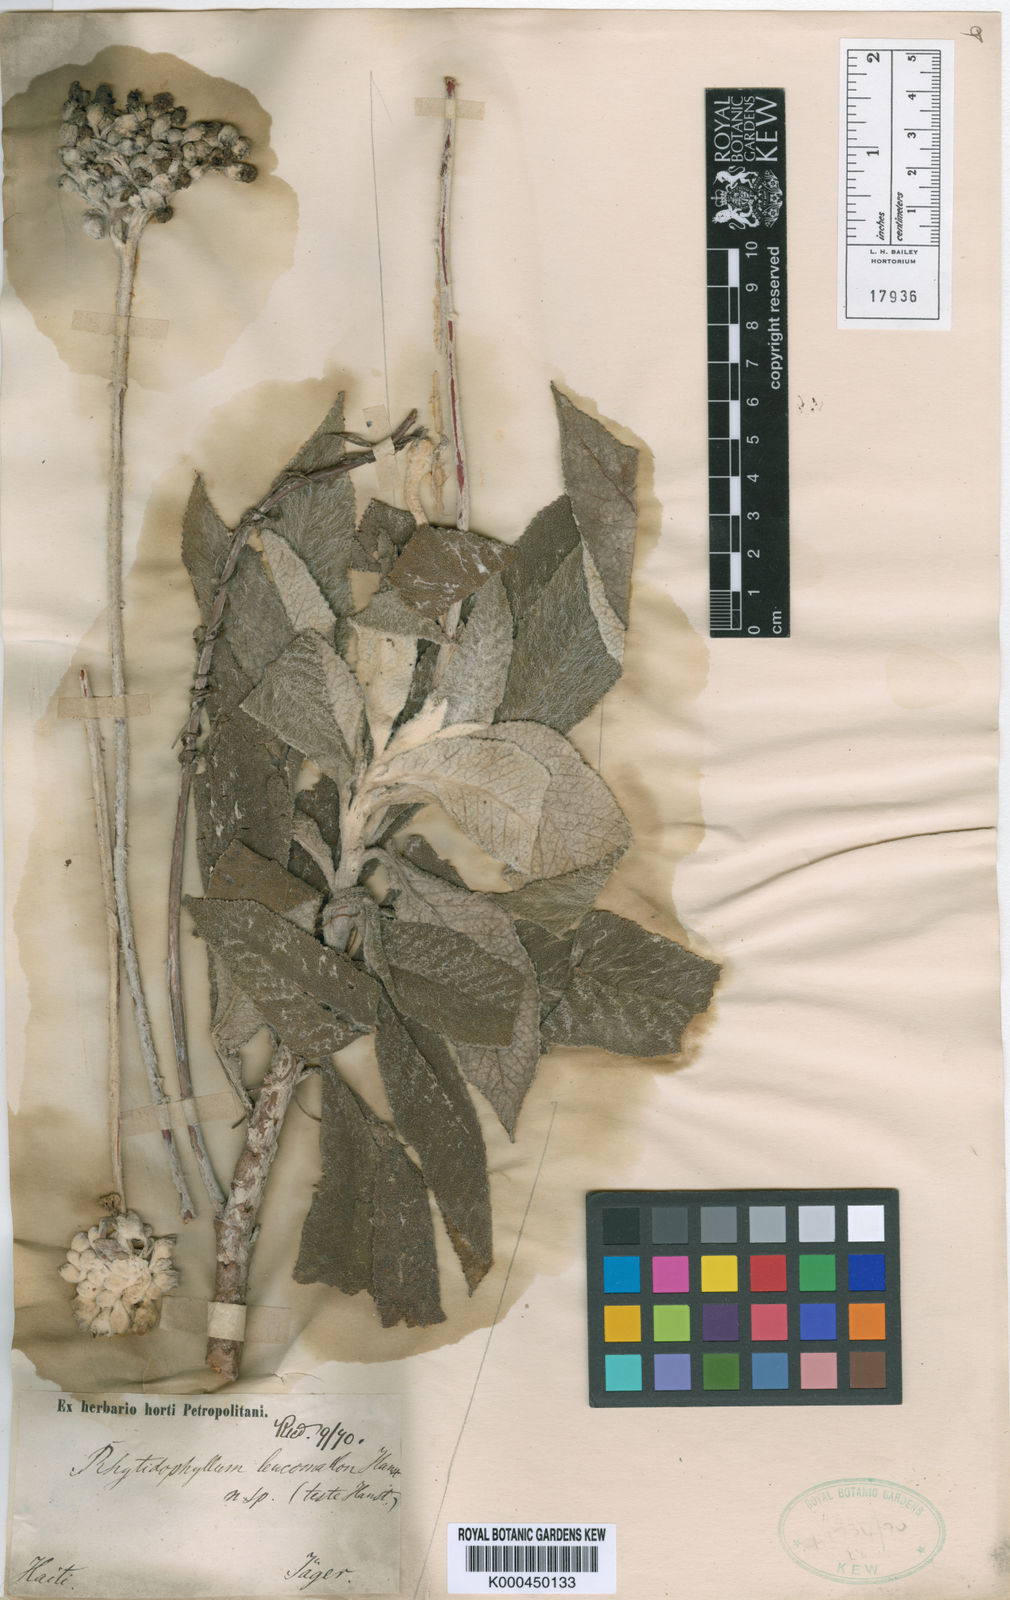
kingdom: Plantae
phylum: Tracheophyta
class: Magnoliopsida
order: Lamiales
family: Gesneriaceae
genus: Rhytidophyllum
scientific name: Rhytidophyllum leucomallon
